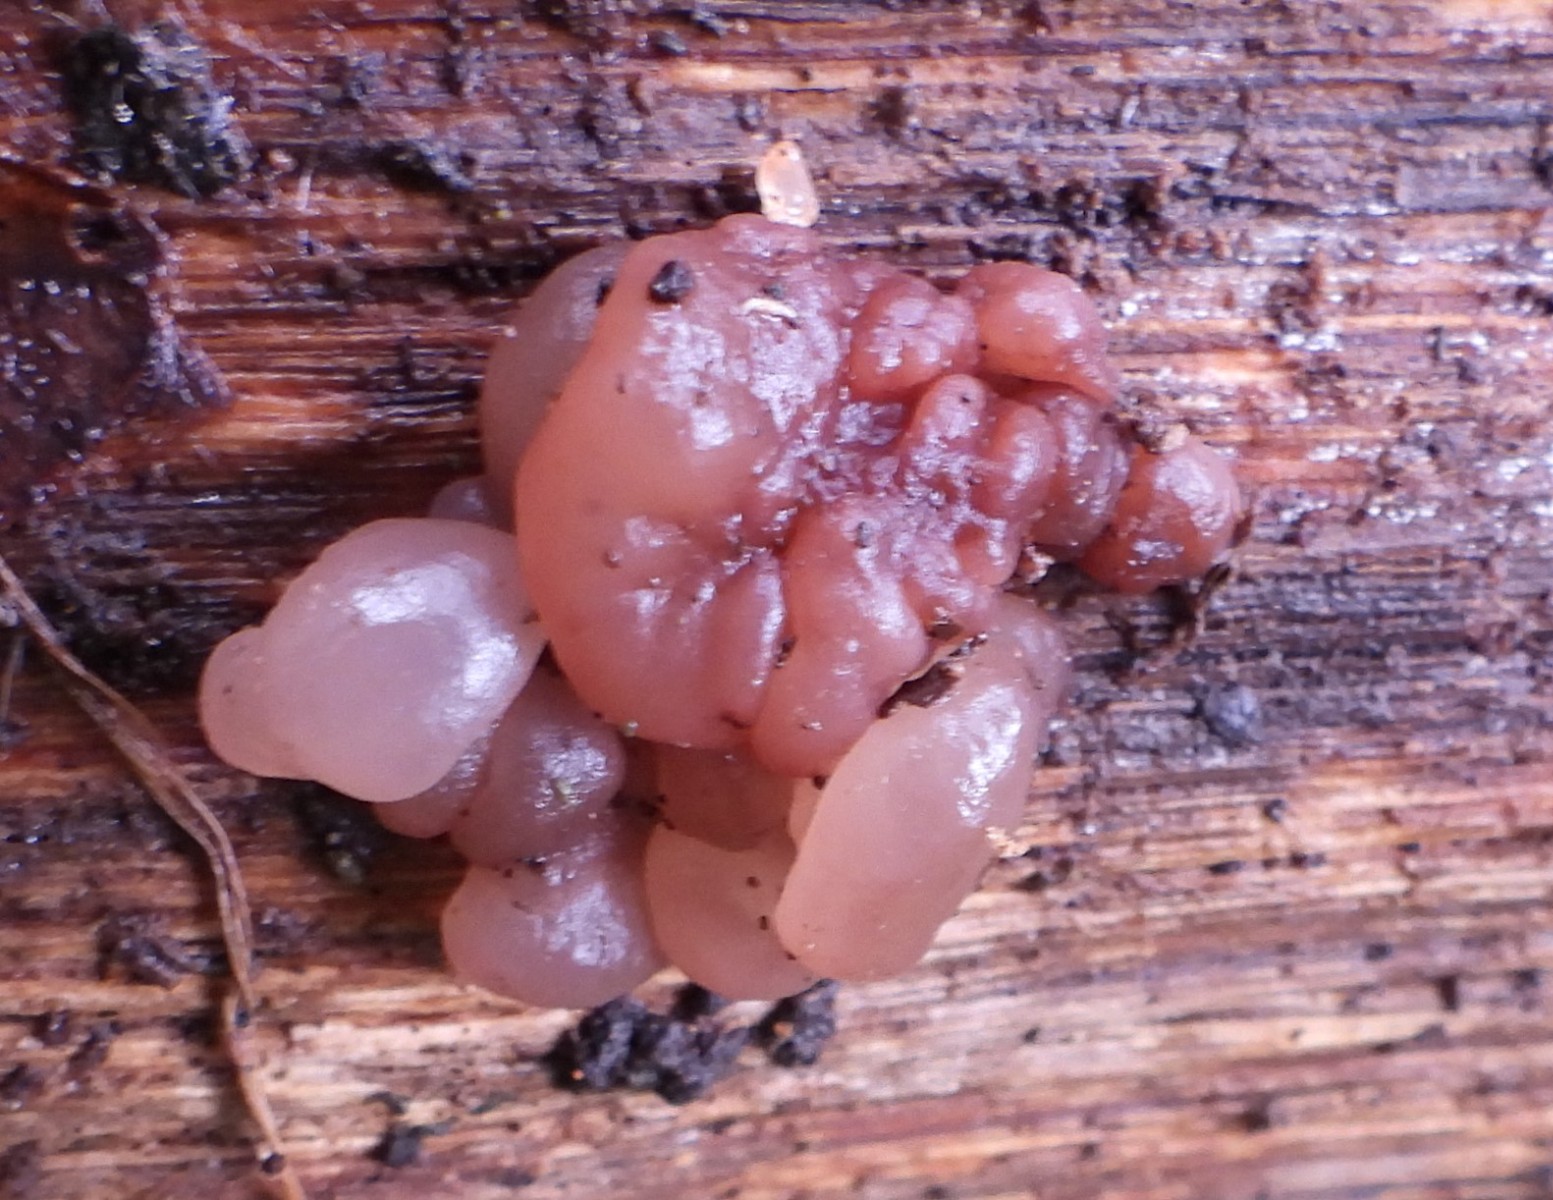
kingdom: Fungi
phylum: Ascomycota
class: Leotiomycetes
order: Helotiales
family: Gelatinodiscaceae
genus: Ascotremella
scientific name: Ascotremella faginea
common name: hjerne-bævreskive
